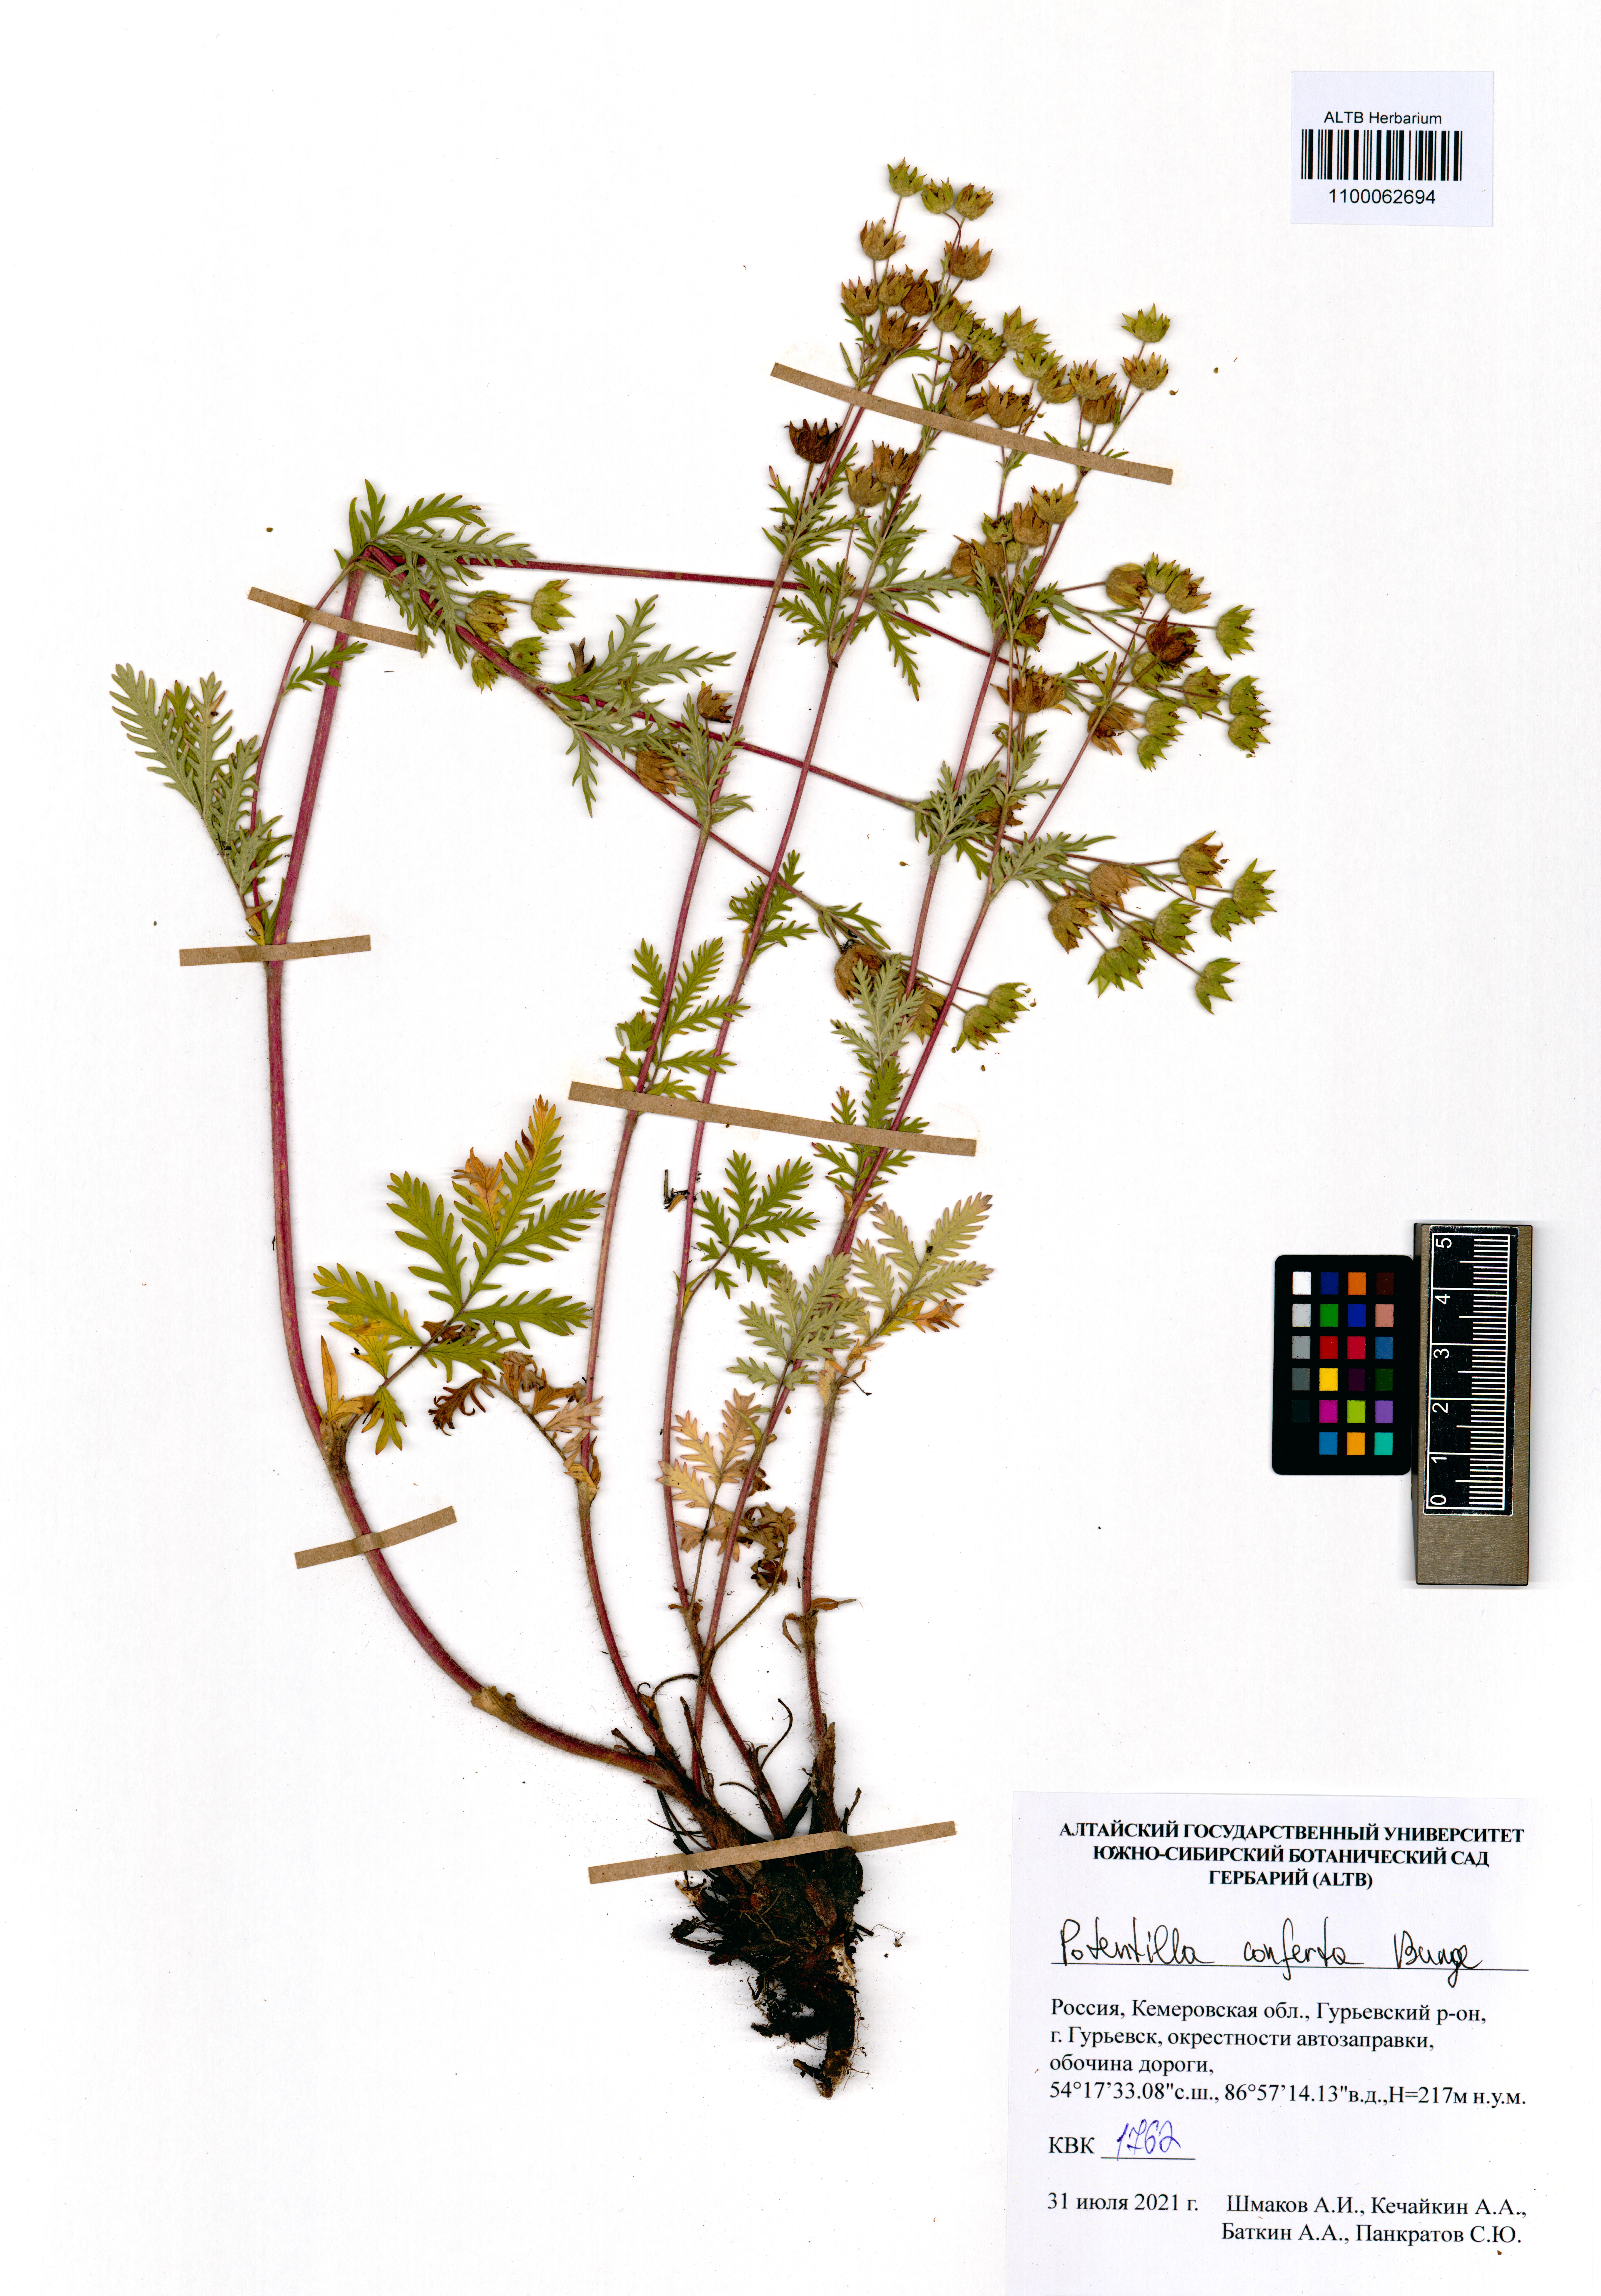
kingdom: Plantae
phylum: Tracheophyta
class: Magnoliopsida
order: Rosales
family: Rosaceae
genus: Potentilla
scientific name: Potentilla conferta
